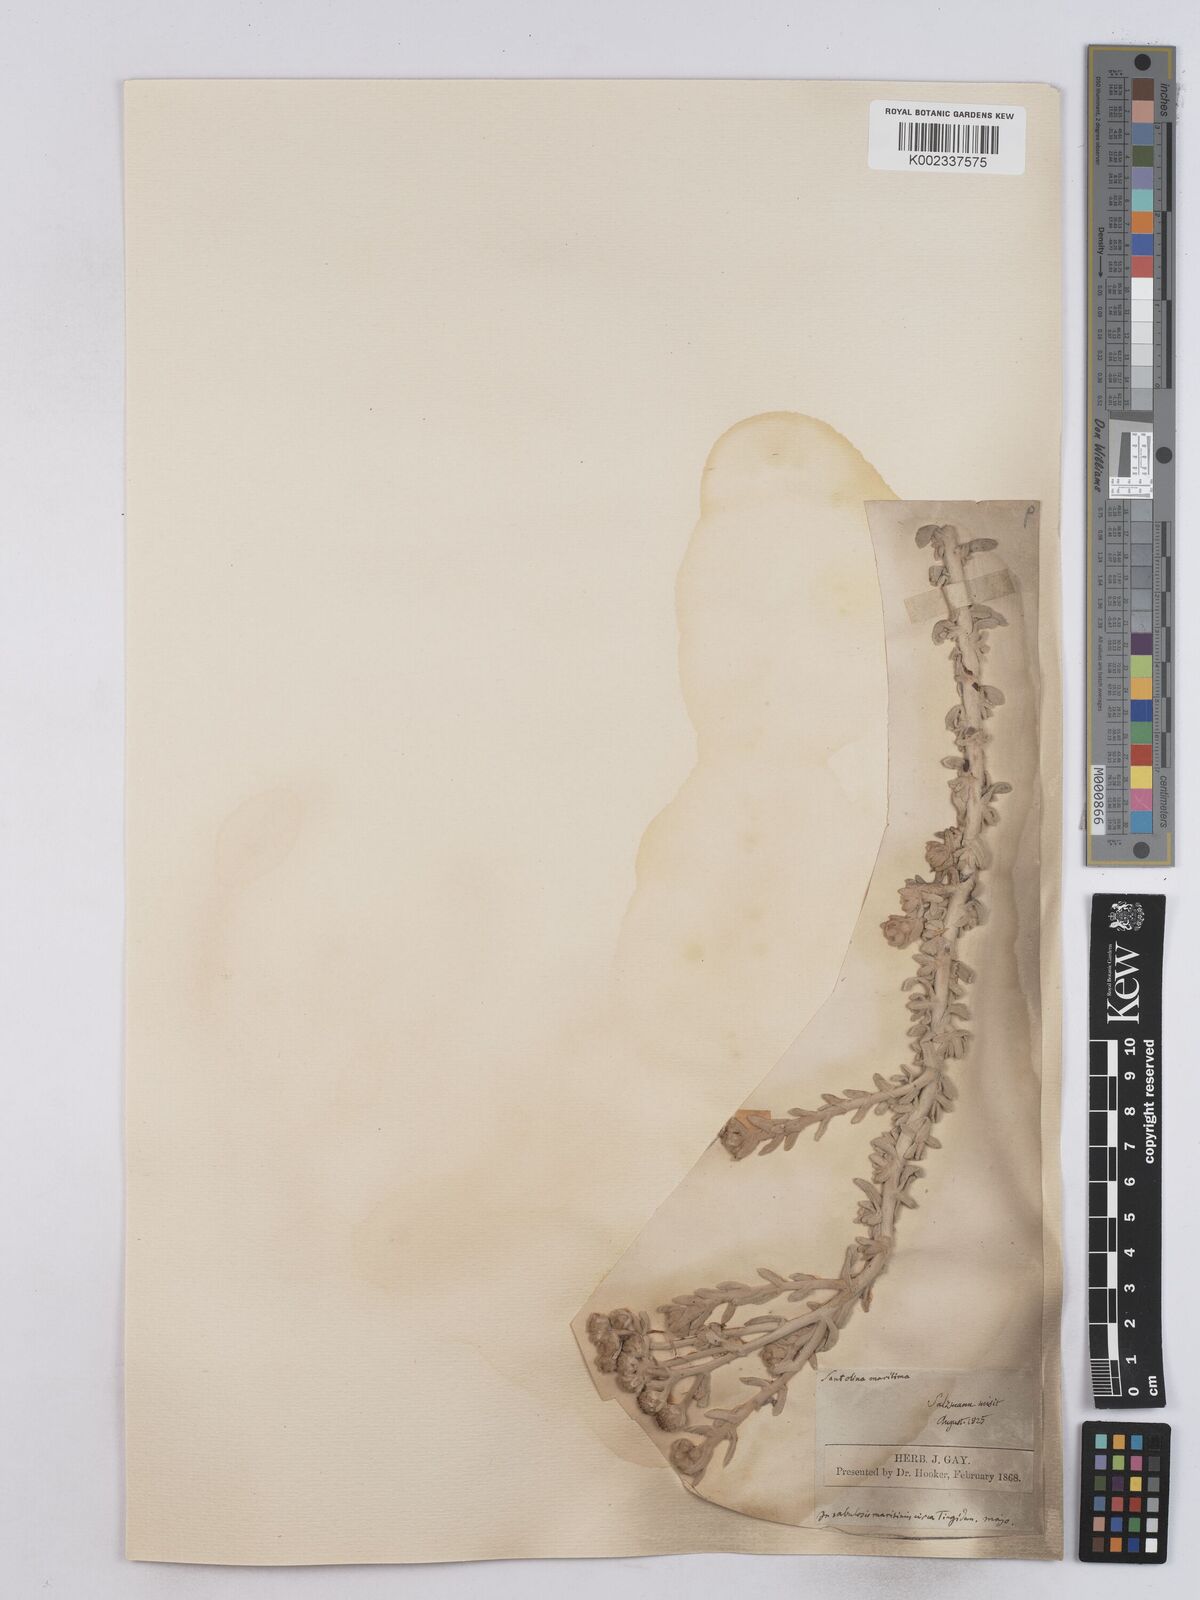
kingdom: Plantae
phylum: Tracheophyta
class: Magnoliopsida
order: Asterales
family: Asteraceae
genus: Achillea
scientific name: Achillea maritima
